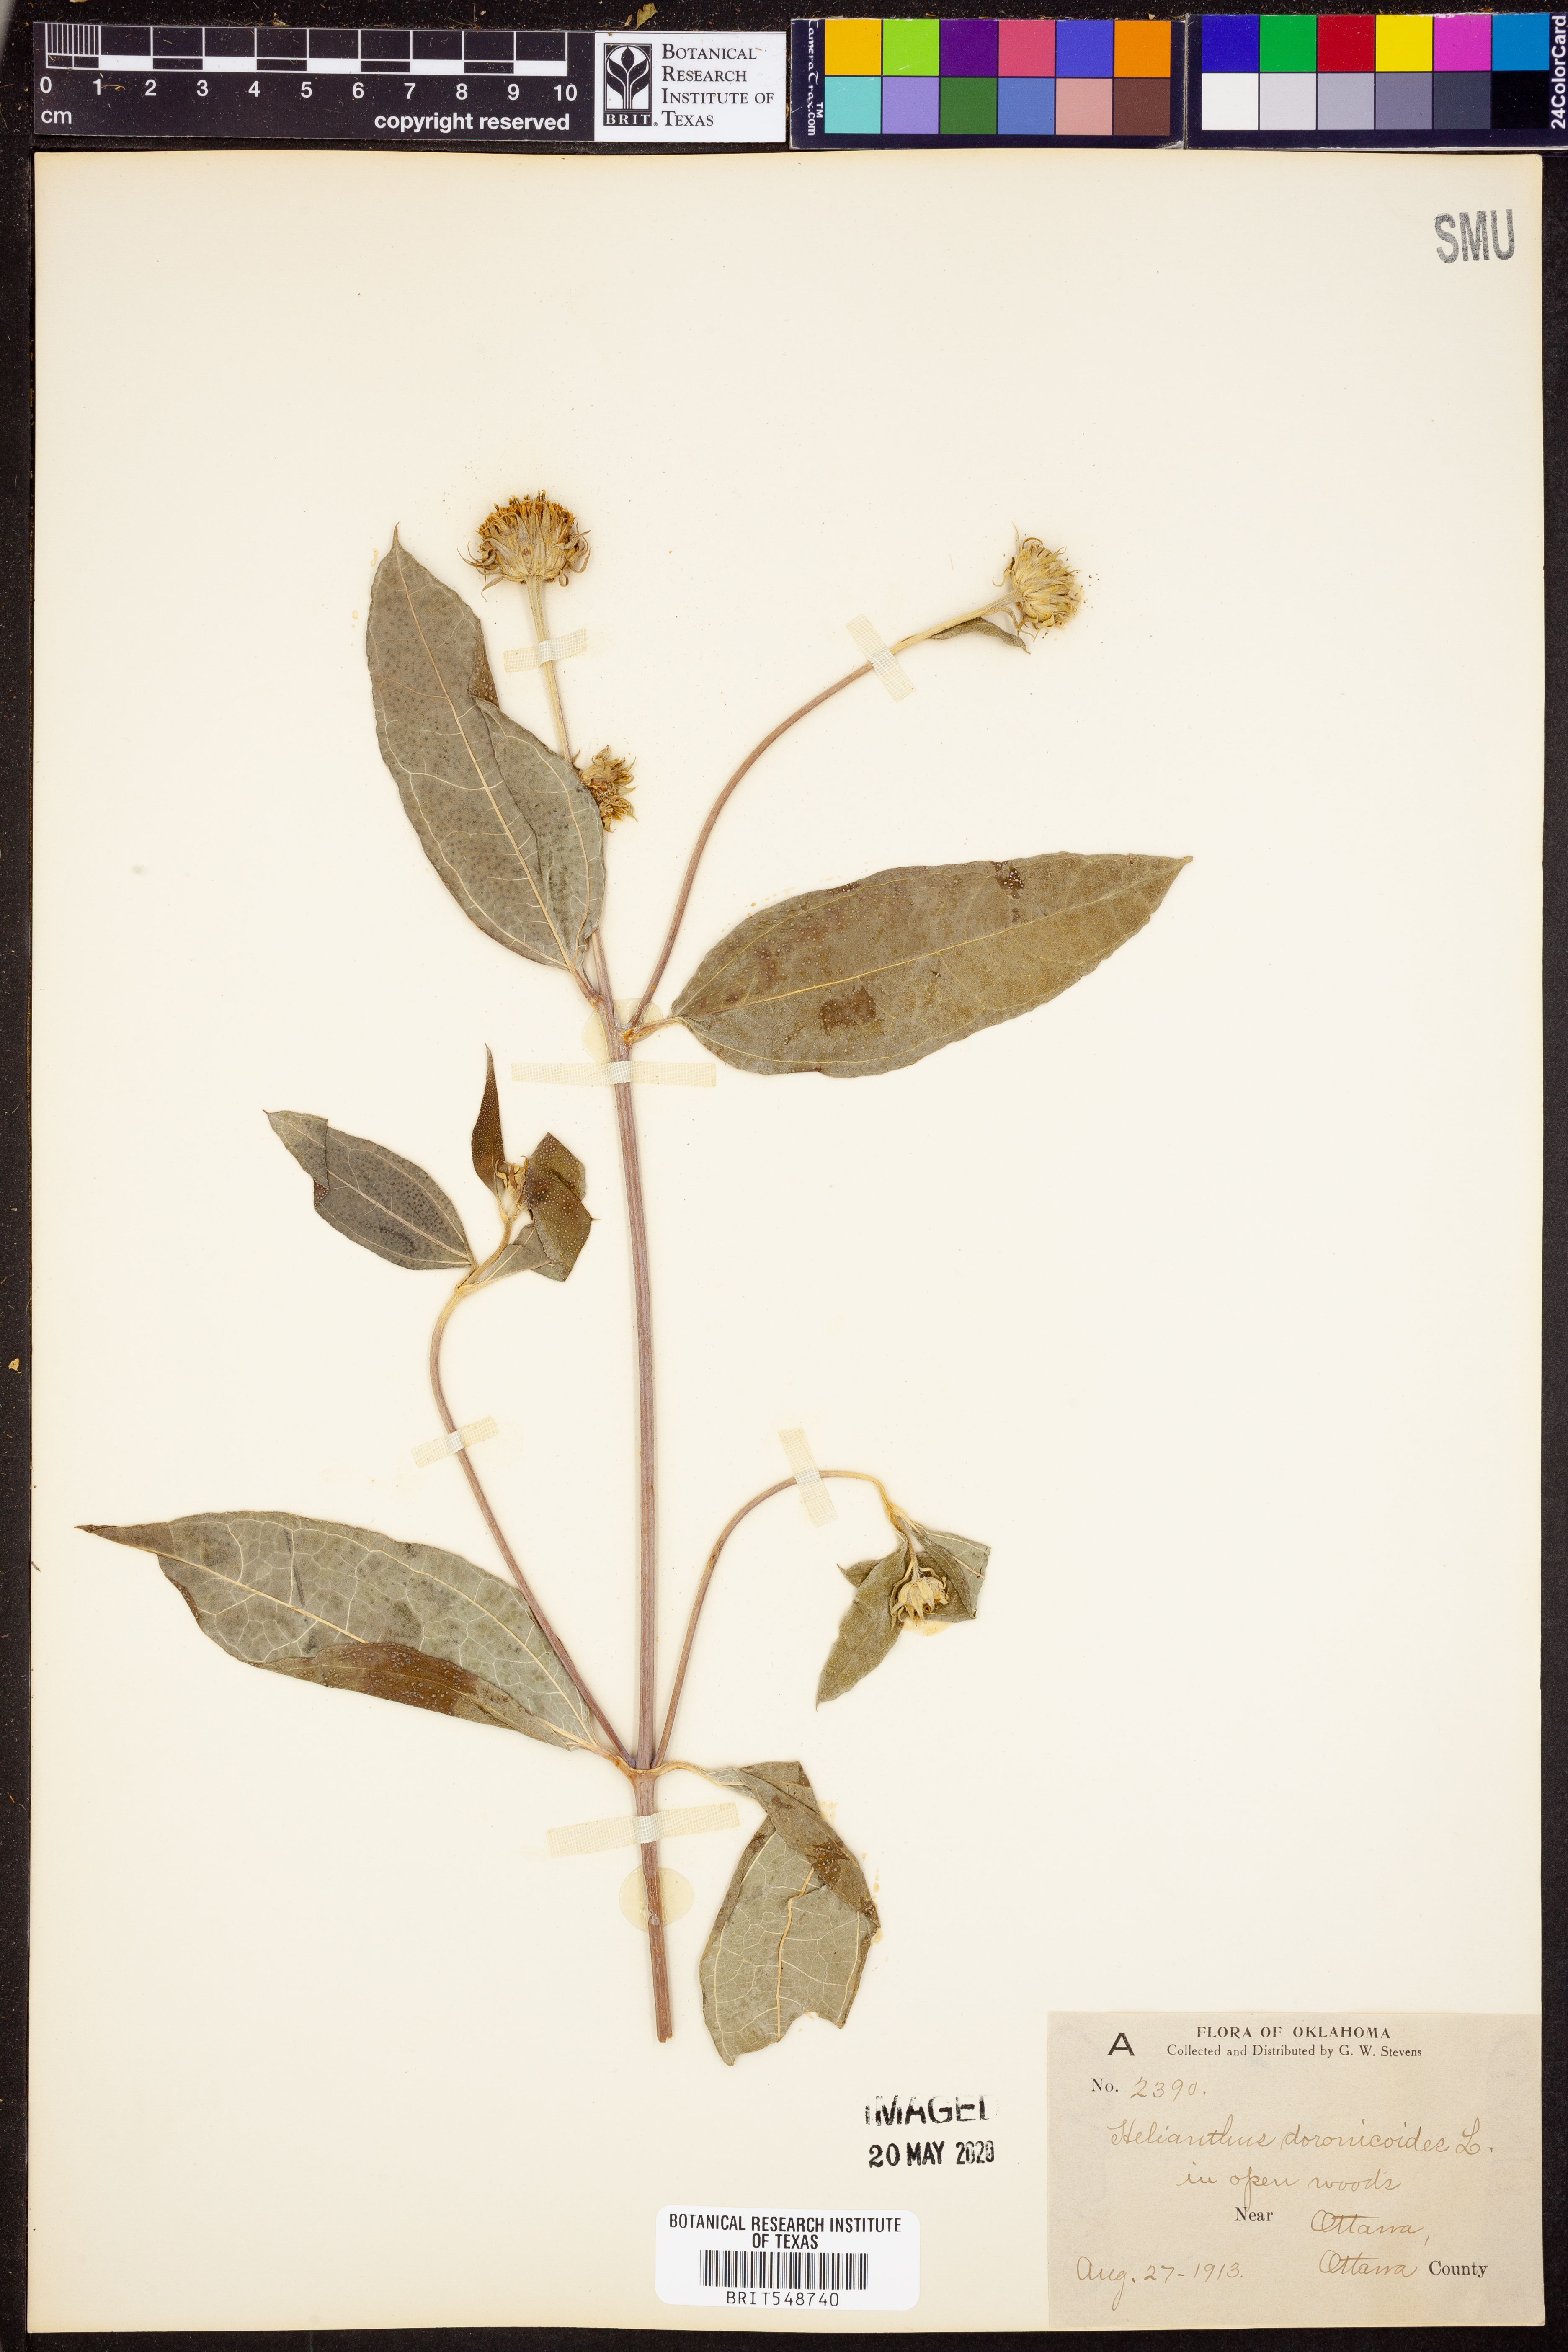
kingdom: Plantae
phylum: Tracheophyta
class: Magnoliopsida
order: Asterales
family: Asteraceae
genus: Helianthus
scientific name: Helianthus doronicoides
